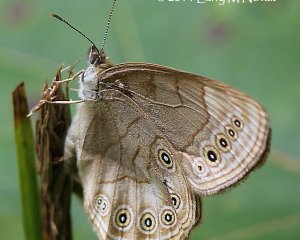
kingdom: Animalia
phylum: Arthropoda
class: Insecta
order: Lepidoptera
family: Nymphalidae
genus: Lethe
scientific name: Lethe eurydice
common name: Appalachian Eyed Brown
